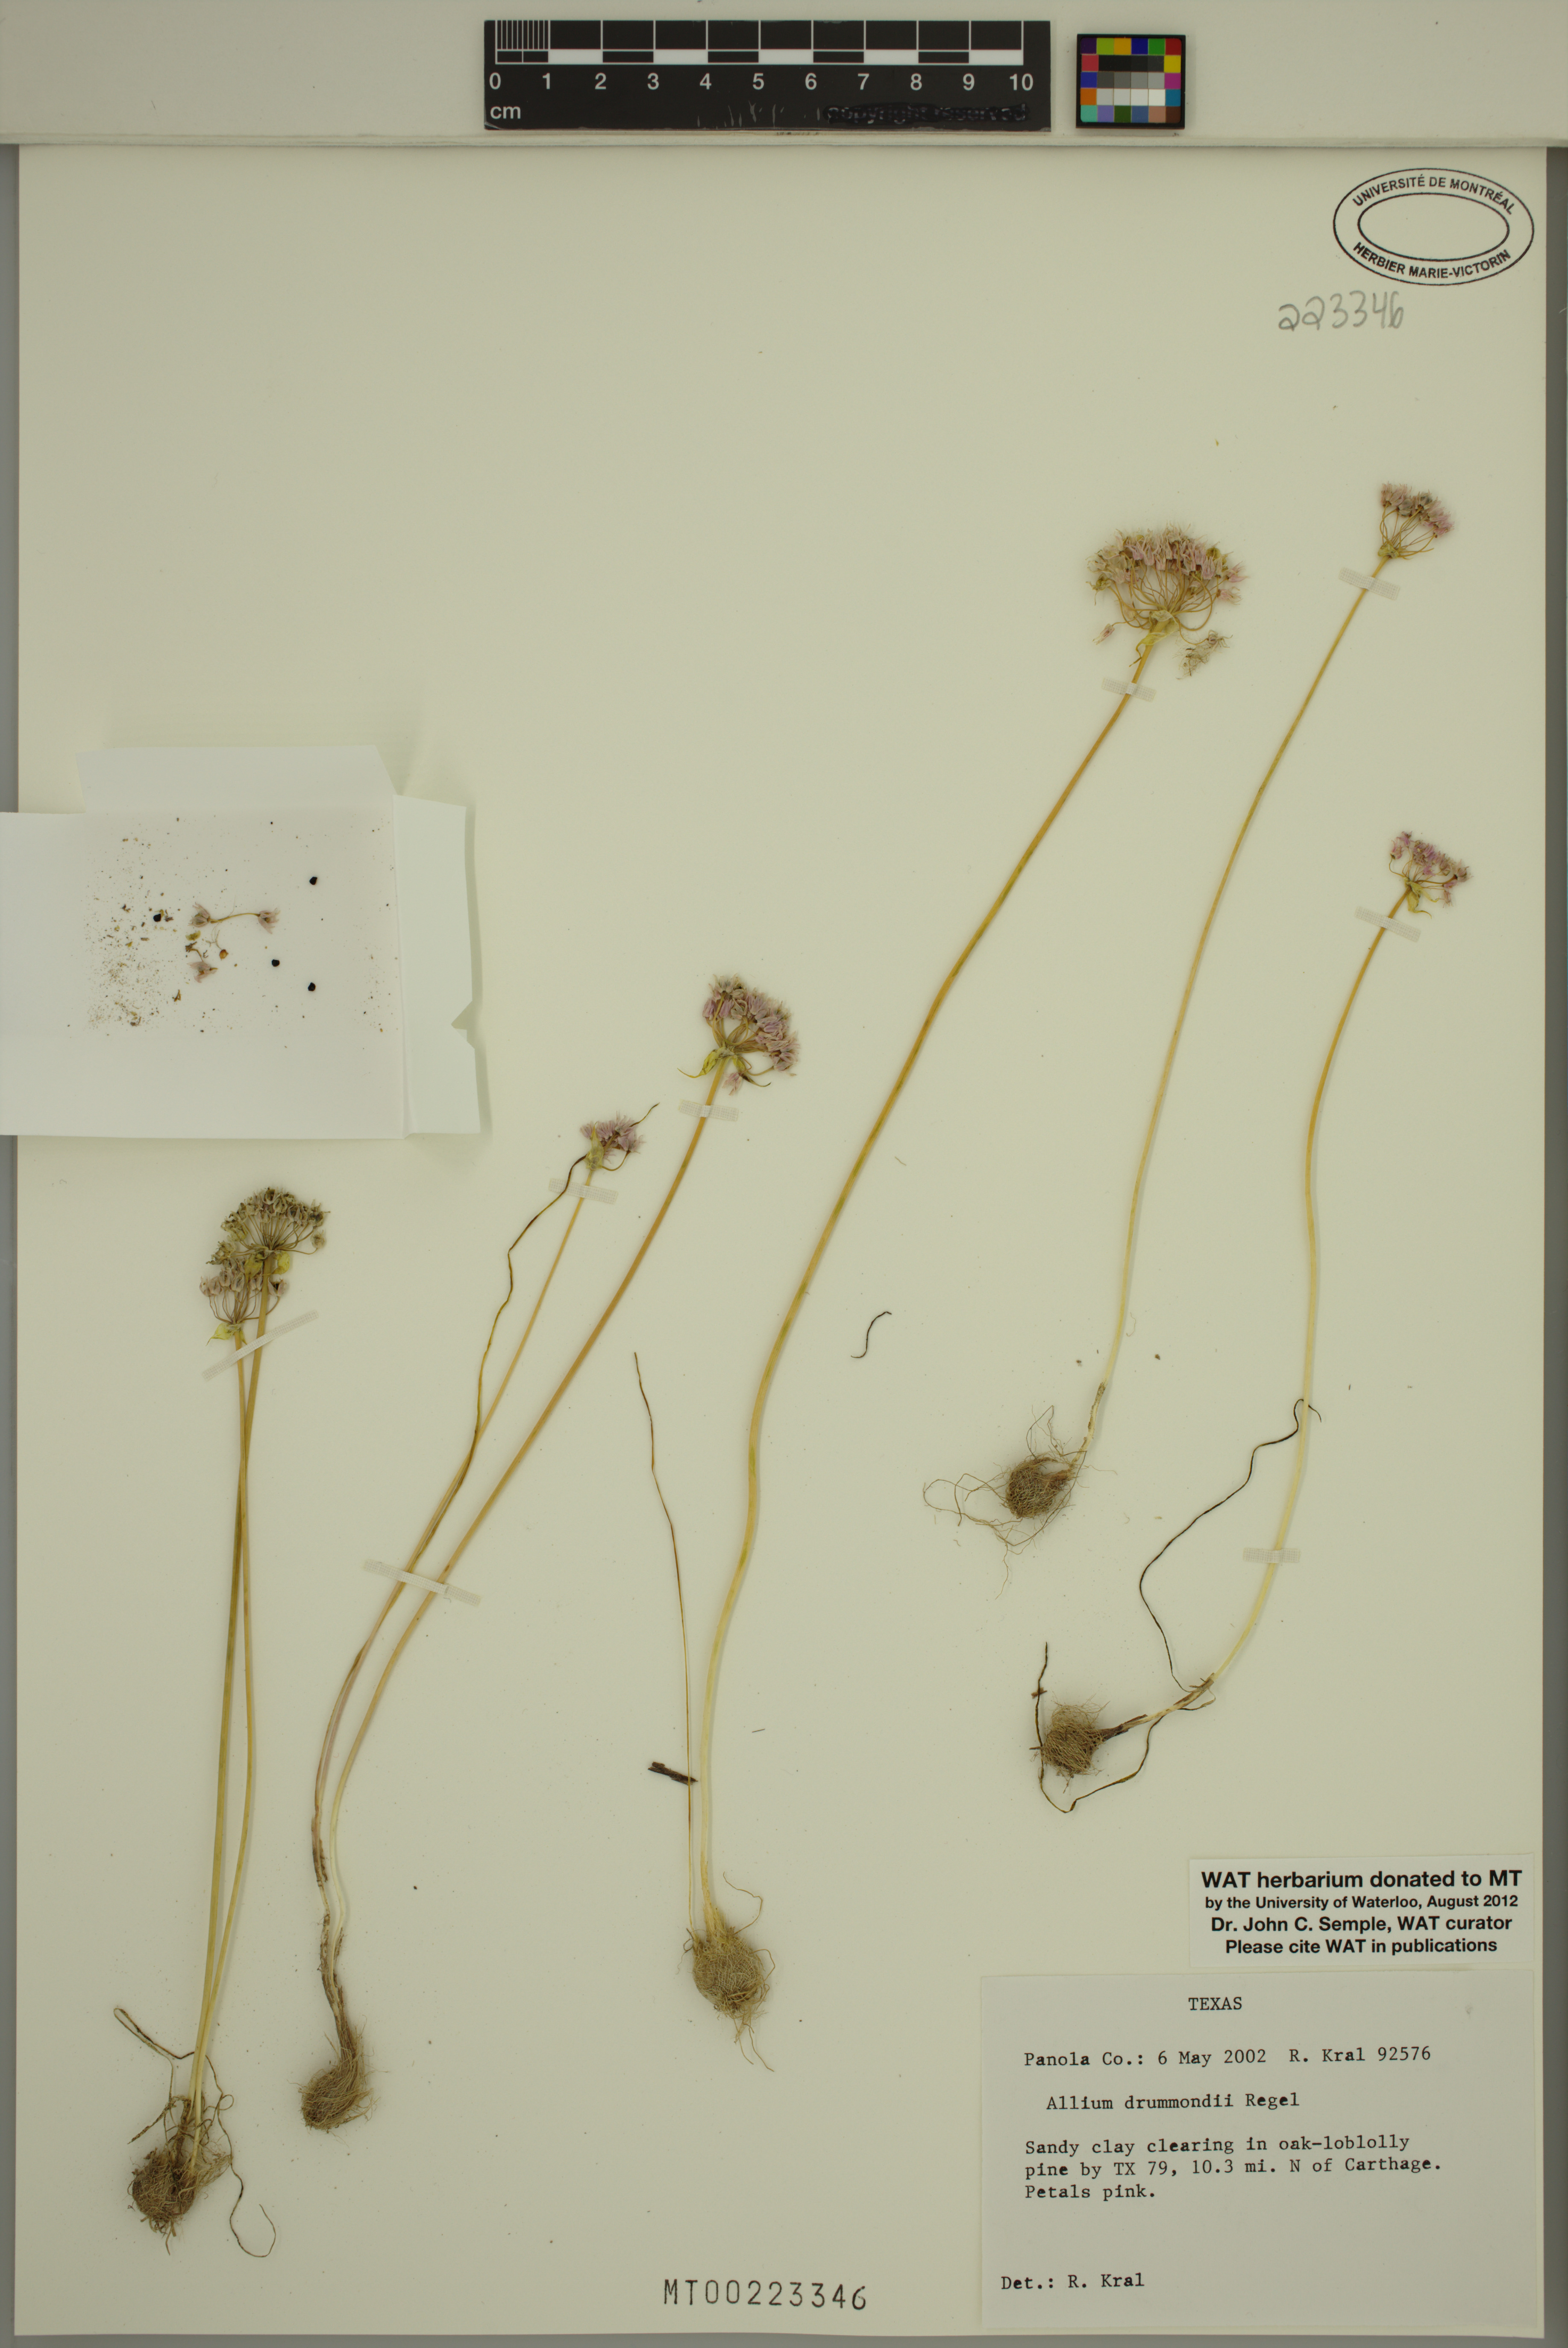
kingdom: Plantae
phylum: Tracheophyta
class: Liliopsida
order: Asparagales
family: Amaryllidaceae
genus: Allium
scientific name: Allium drummondii
